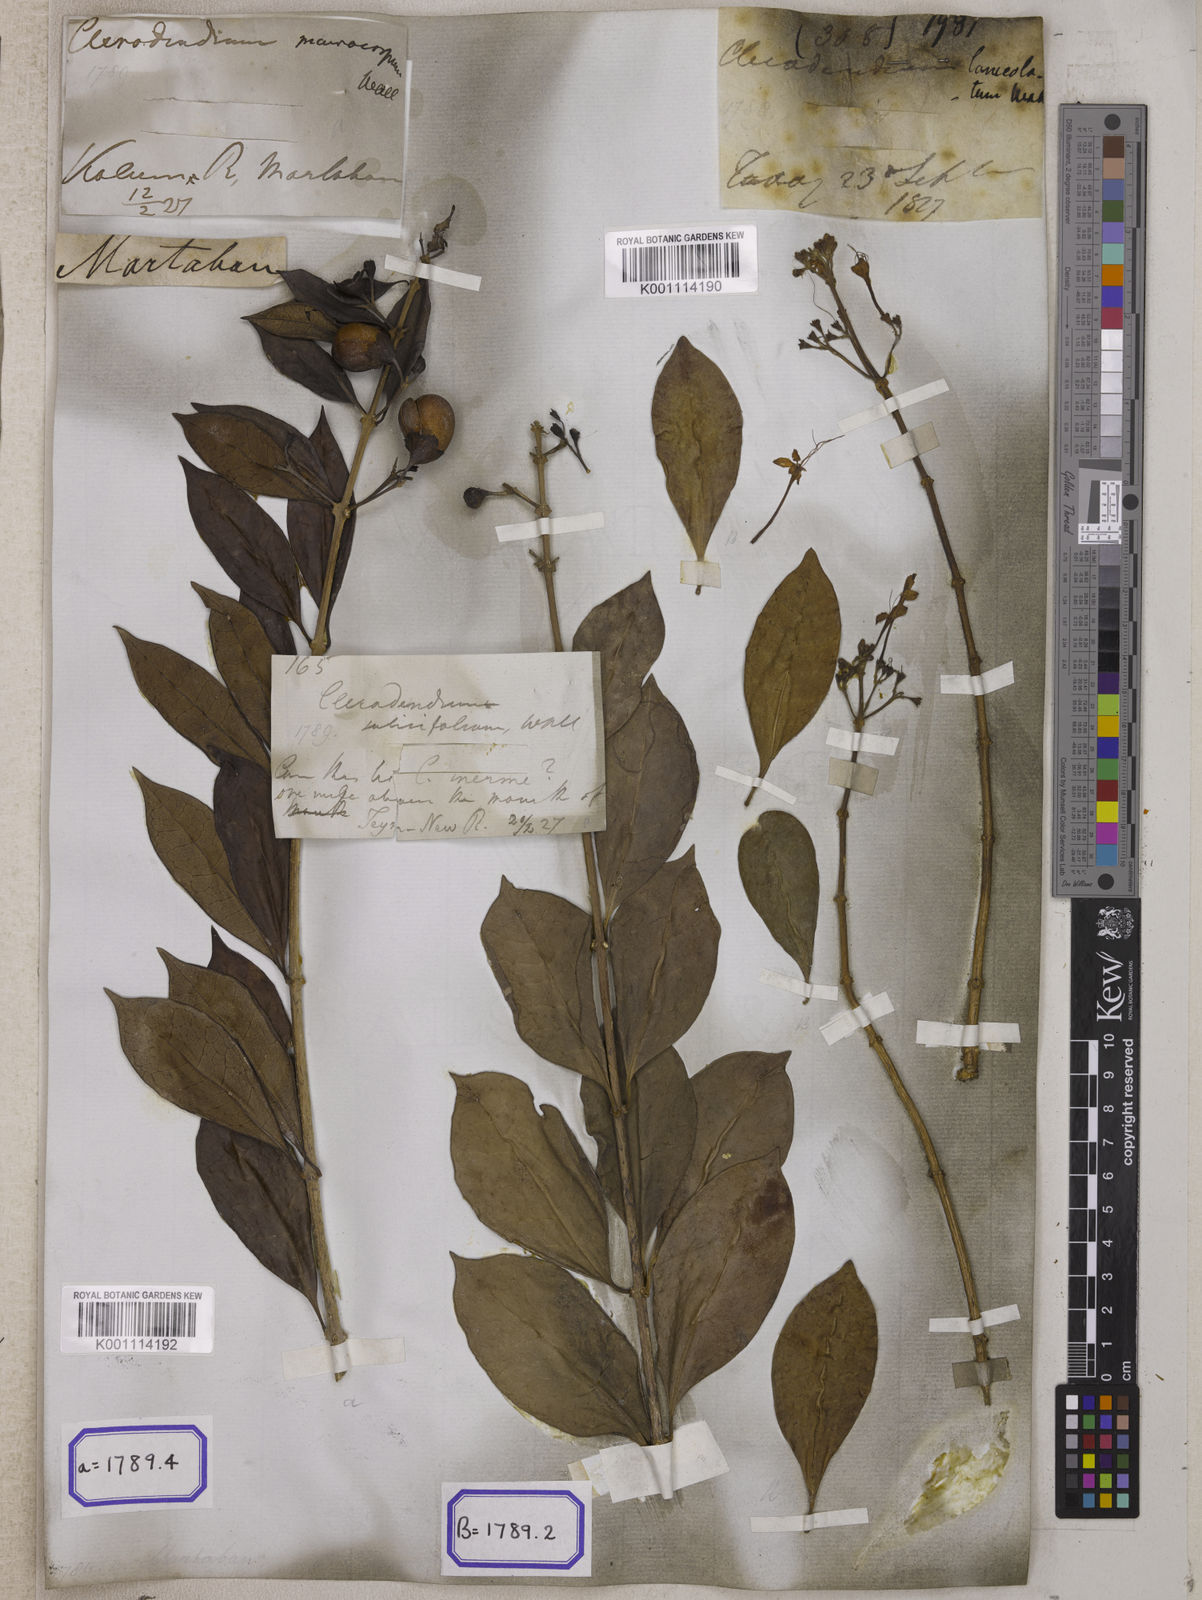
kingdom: Plantae
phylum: Tracheophyta
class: Magnoliopsida
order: Lamiales
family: Lamiaceae
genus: Clerodendrum
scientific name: Clerodendrum
